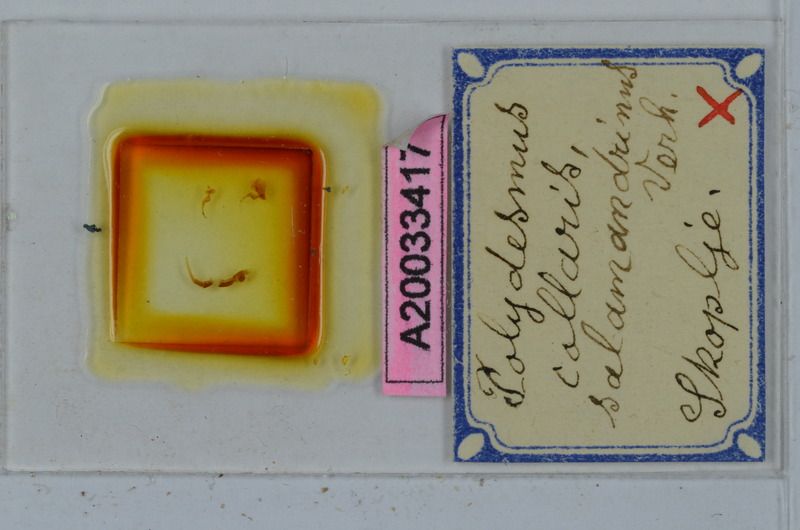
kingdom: Animalia
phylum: Arthropoda
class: Diplopoda
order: Polydesmida
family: Polydesmidae
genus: Polydesmus
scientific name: Polydesmus collaris
